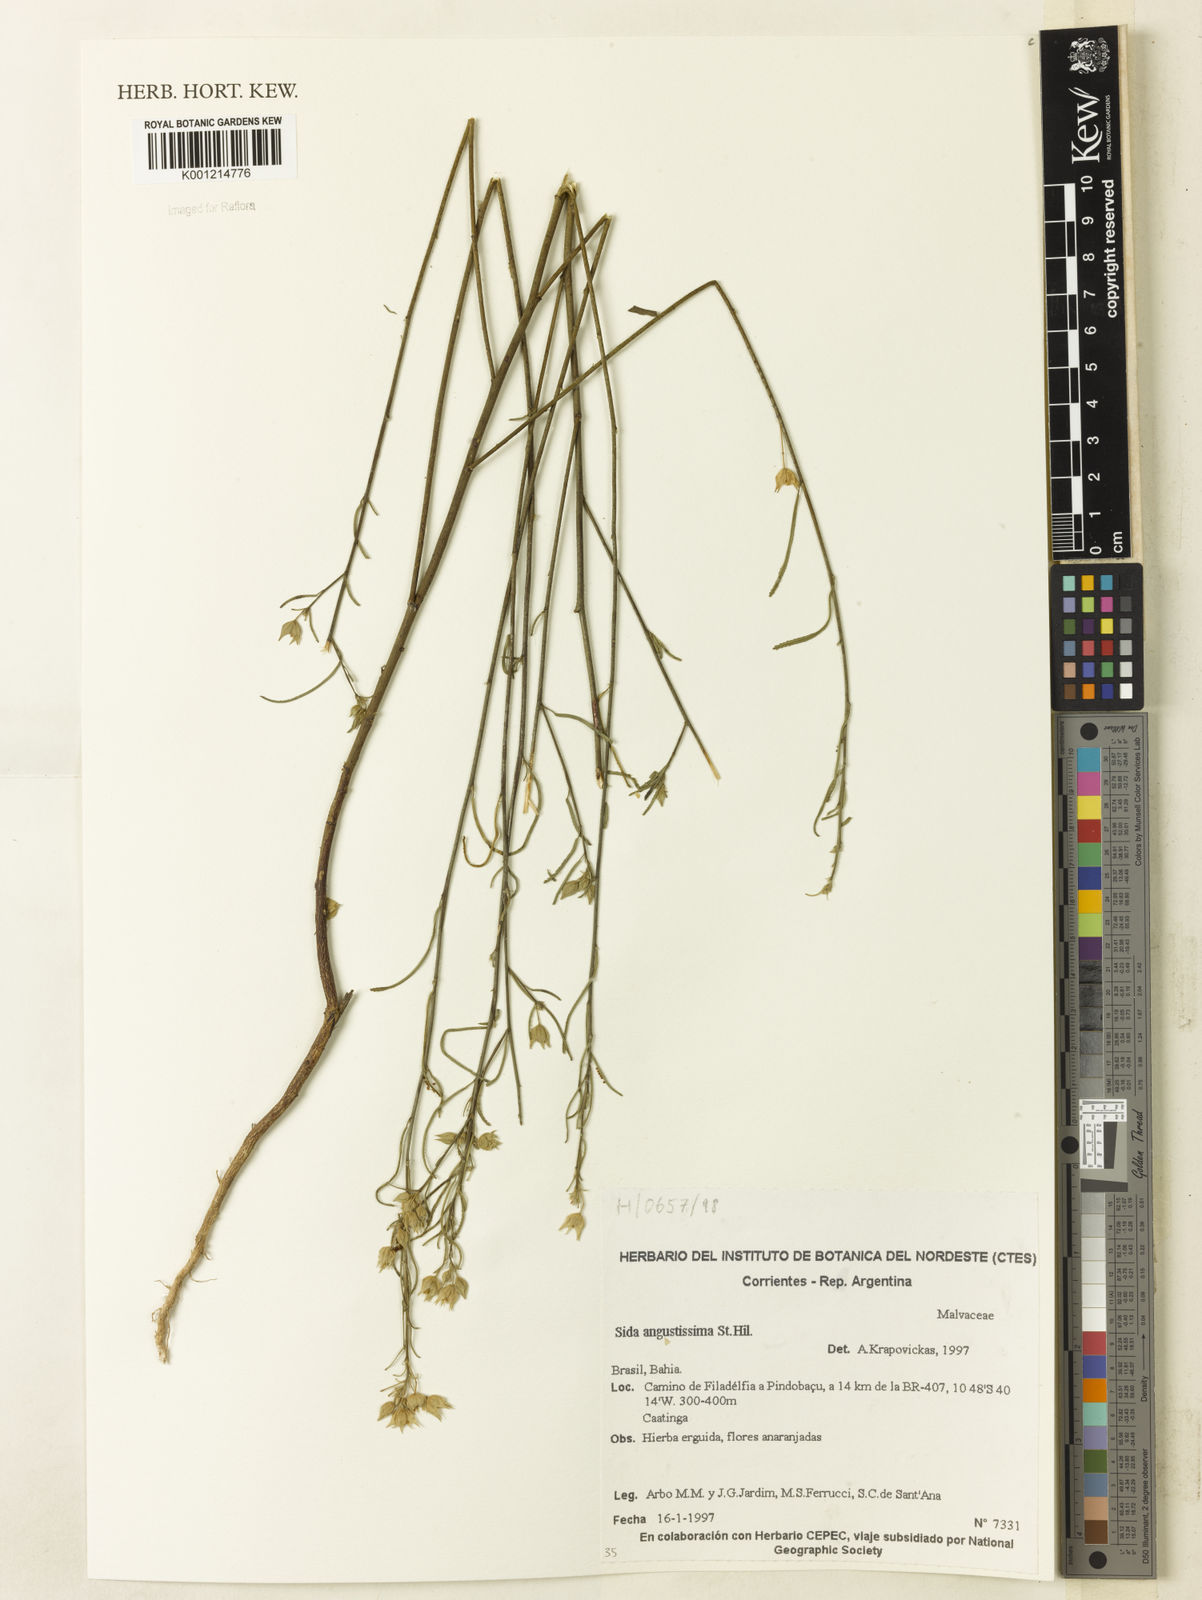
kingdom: Plantae
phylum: Tracheophyta
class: Magnoliopsida
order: Malvales
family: Malvaceae
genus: Sida
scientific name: Sida angustissima
